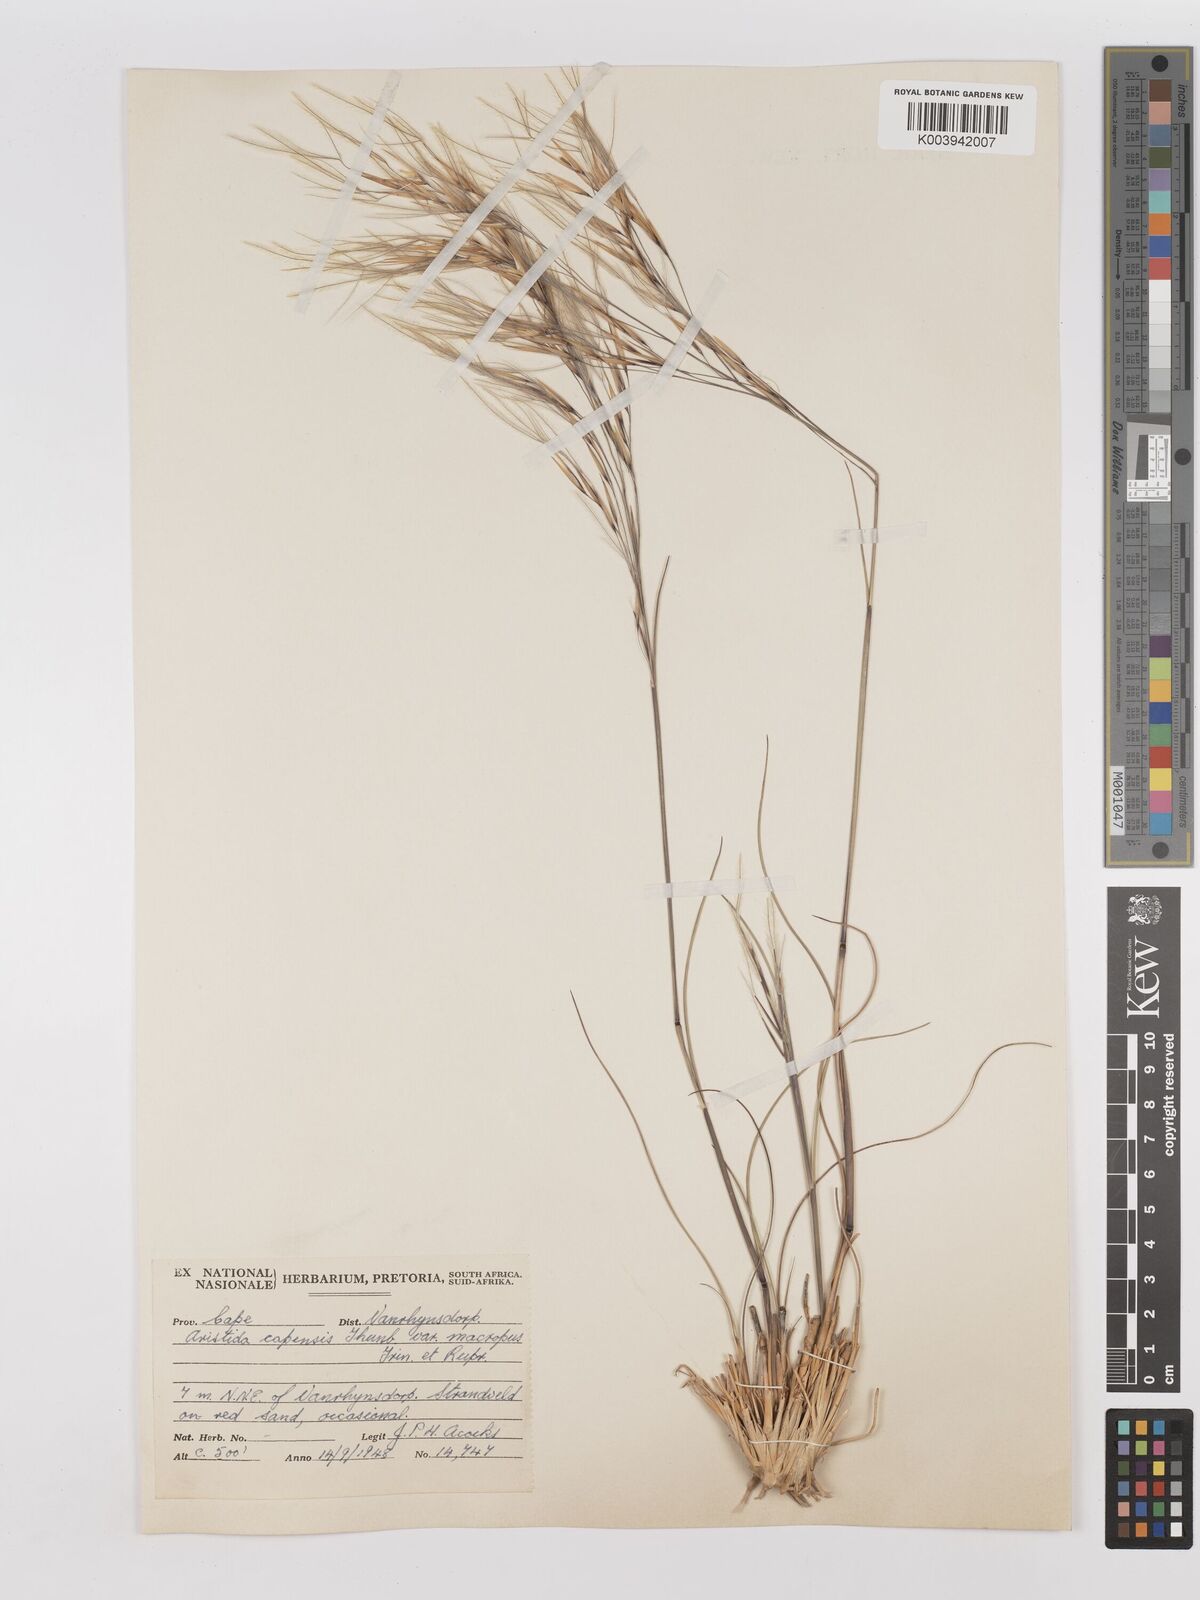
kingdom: Plantae
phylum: Tracheophyta
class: Liliopsida
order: Poales
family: Poaceae
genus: Stipagrostis
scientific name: Stipagrostis zeyheri
